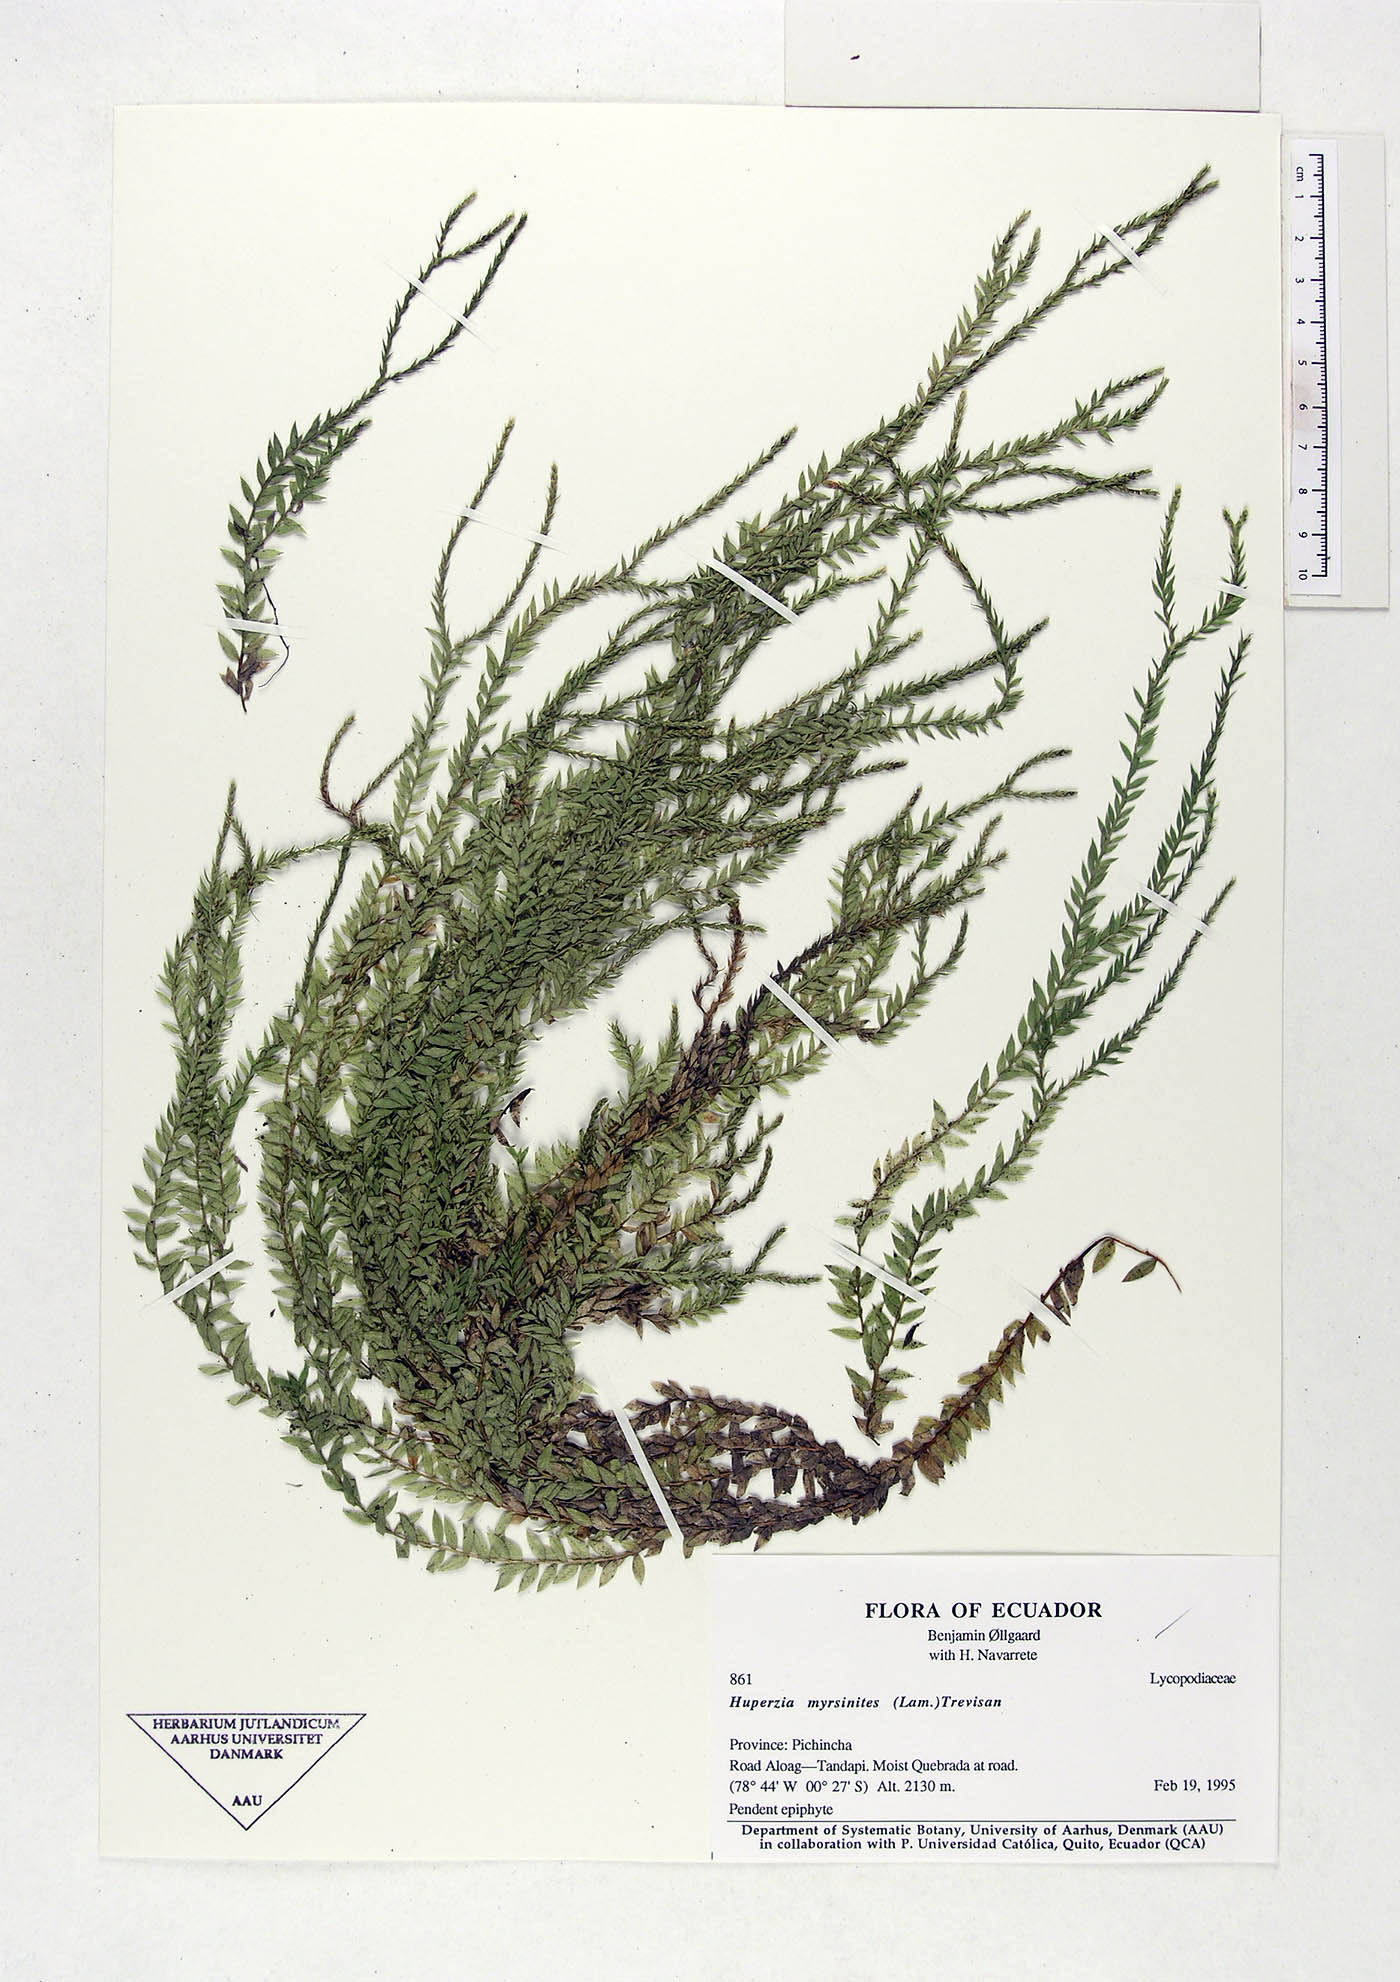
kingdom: Plantae
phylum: Tracheophyta
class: Lycopodiopsida
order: Lycopodiales
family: Lycopodiaceae
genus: Phlegmariurus
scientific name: Phlegmariurus myrsinites
